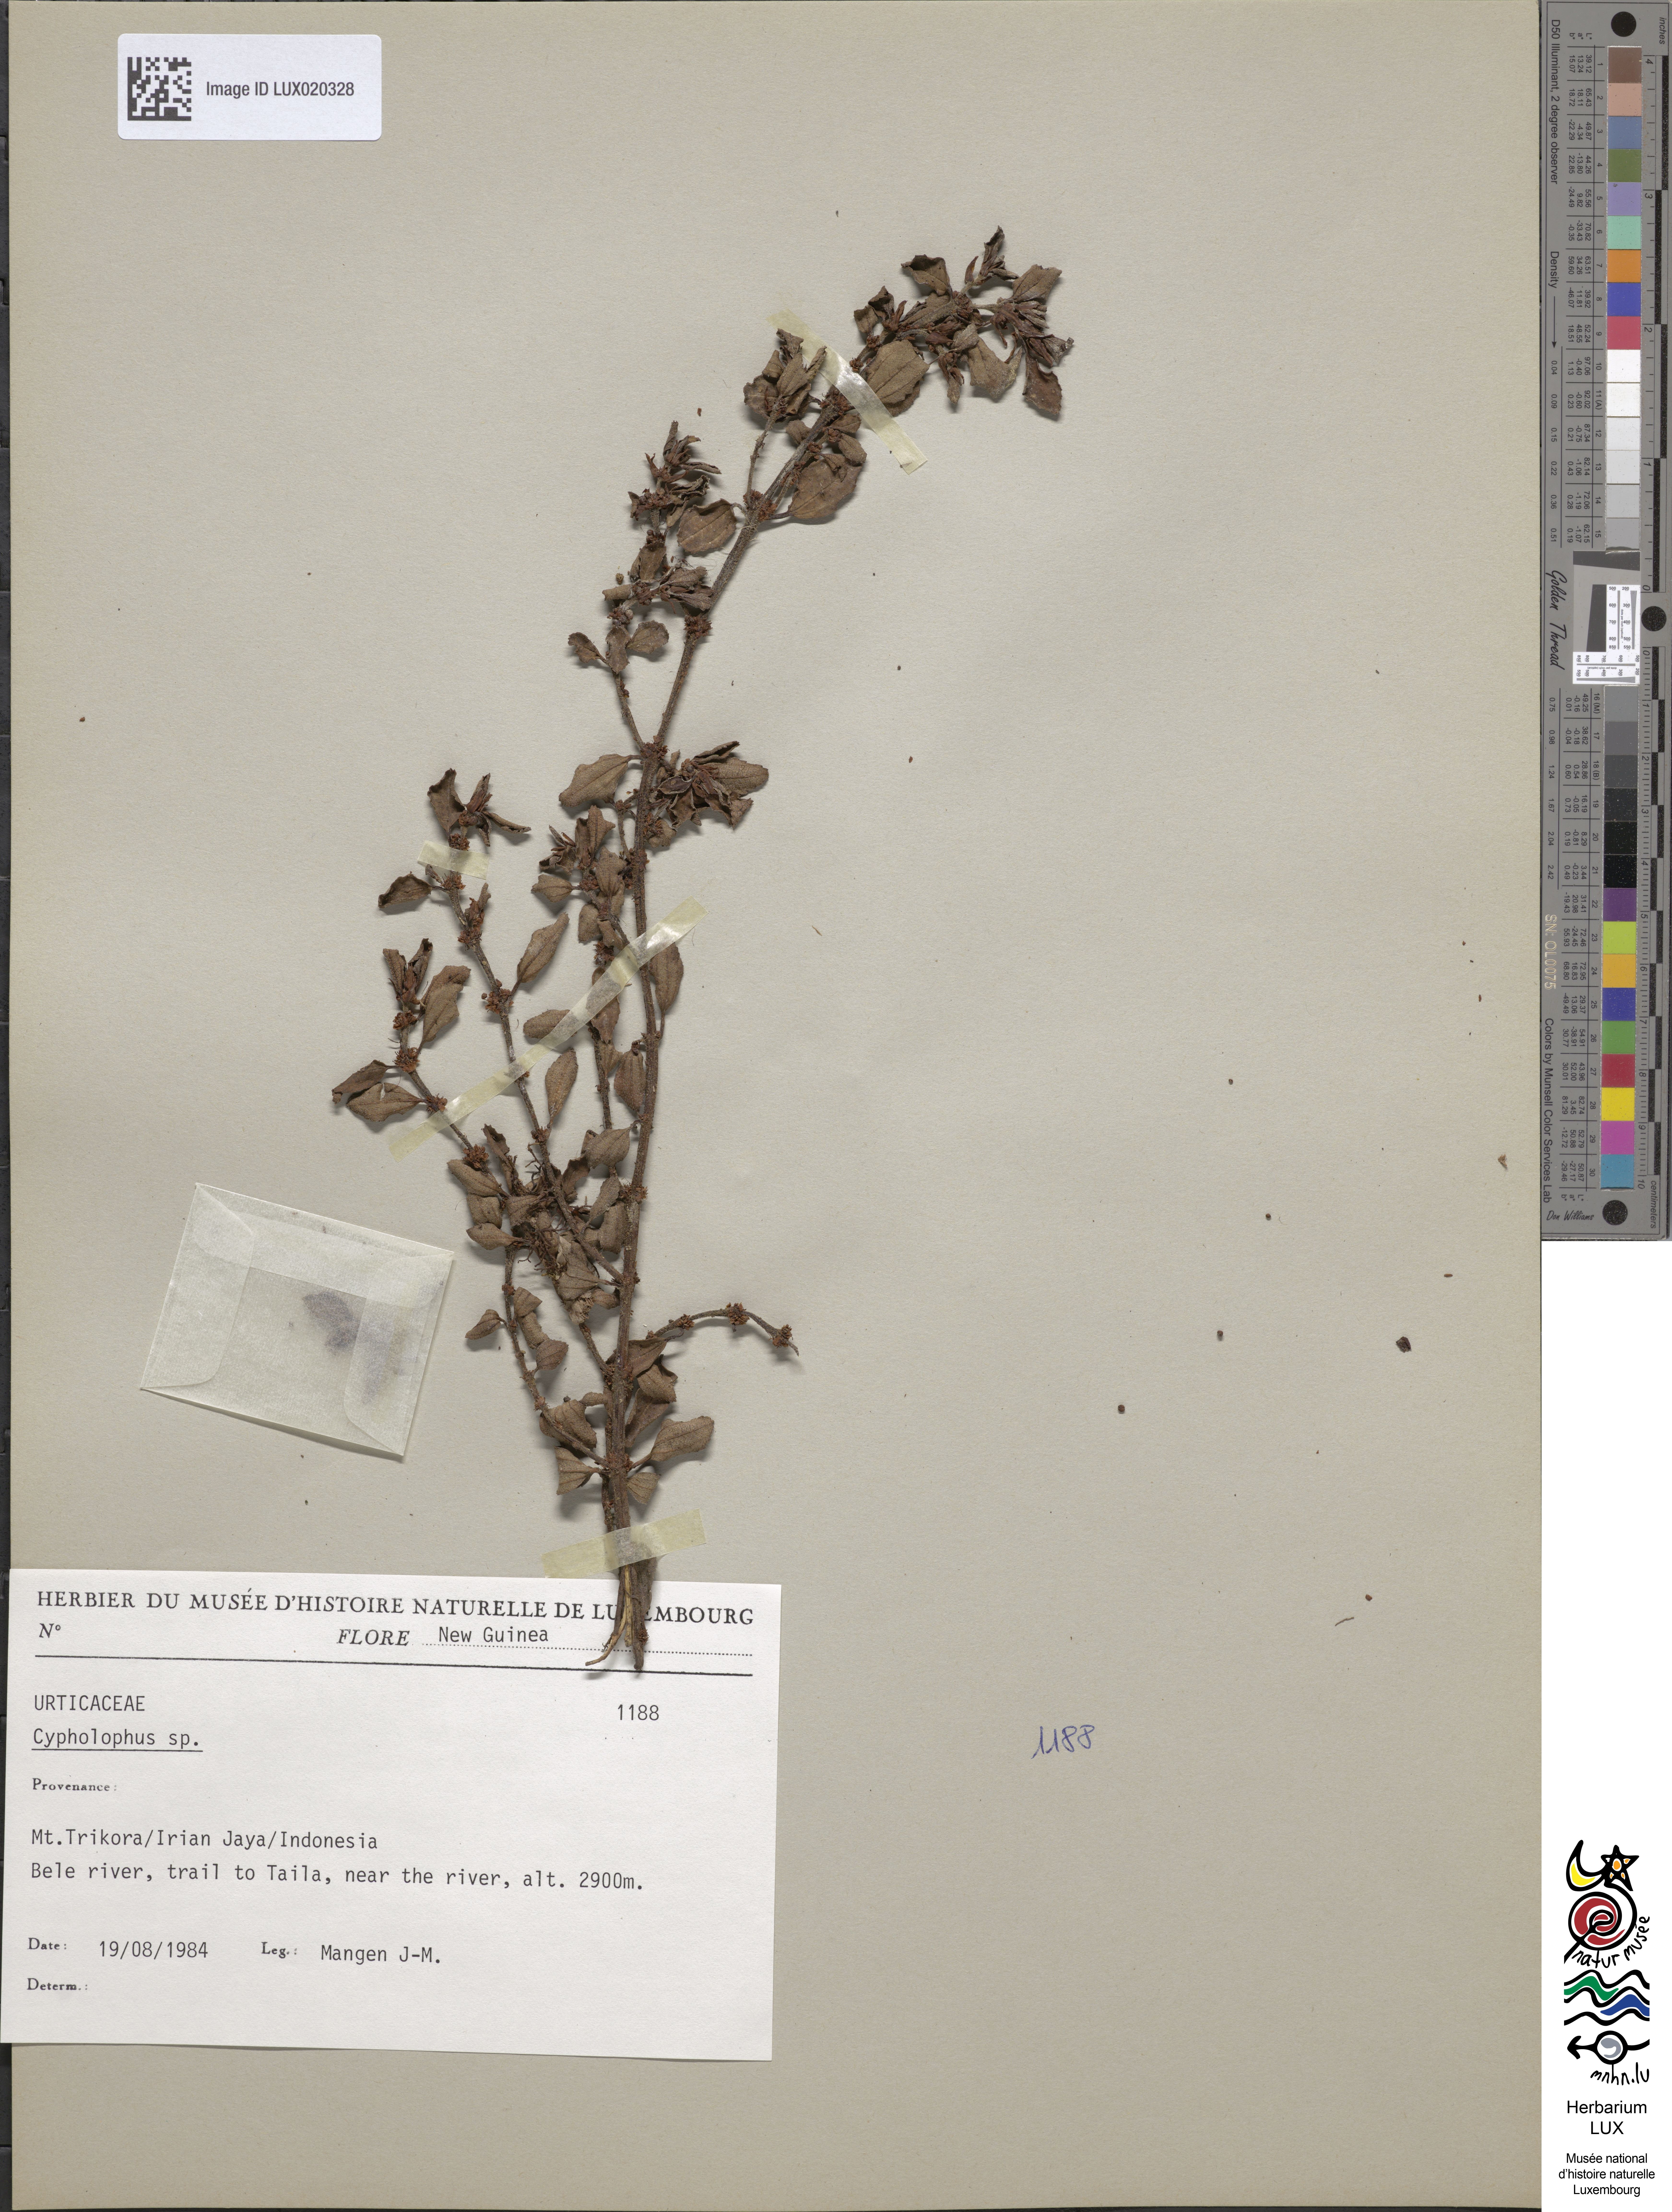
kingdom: Plantae
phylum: Tracheophyta
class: Magnoliopsida
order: Rosales
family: Urticaceae
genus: Cypholophus
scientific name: Cypholophus
